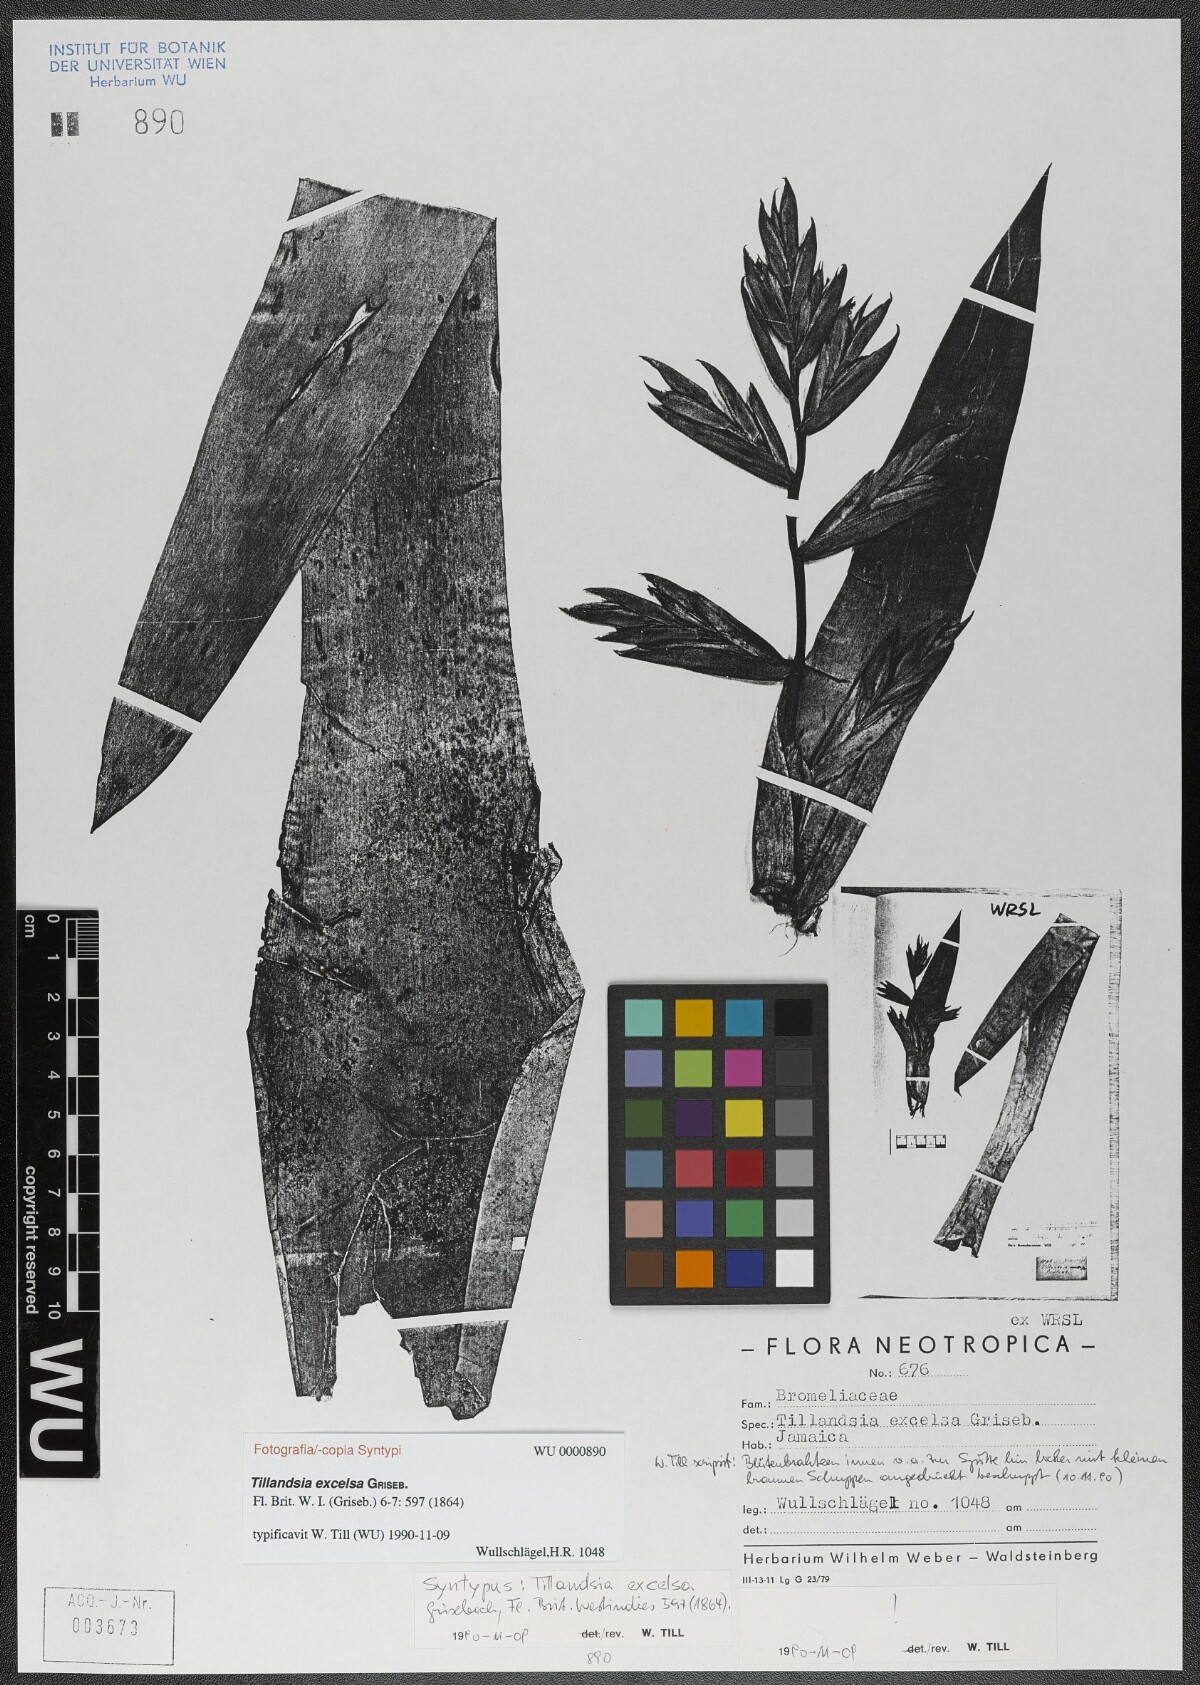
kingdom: Plantae
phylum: Tracheophyta
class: Liliopsida
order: Poales
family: Bromeliaceae
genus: Tillandsia
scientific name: Tillandsia excelsa
